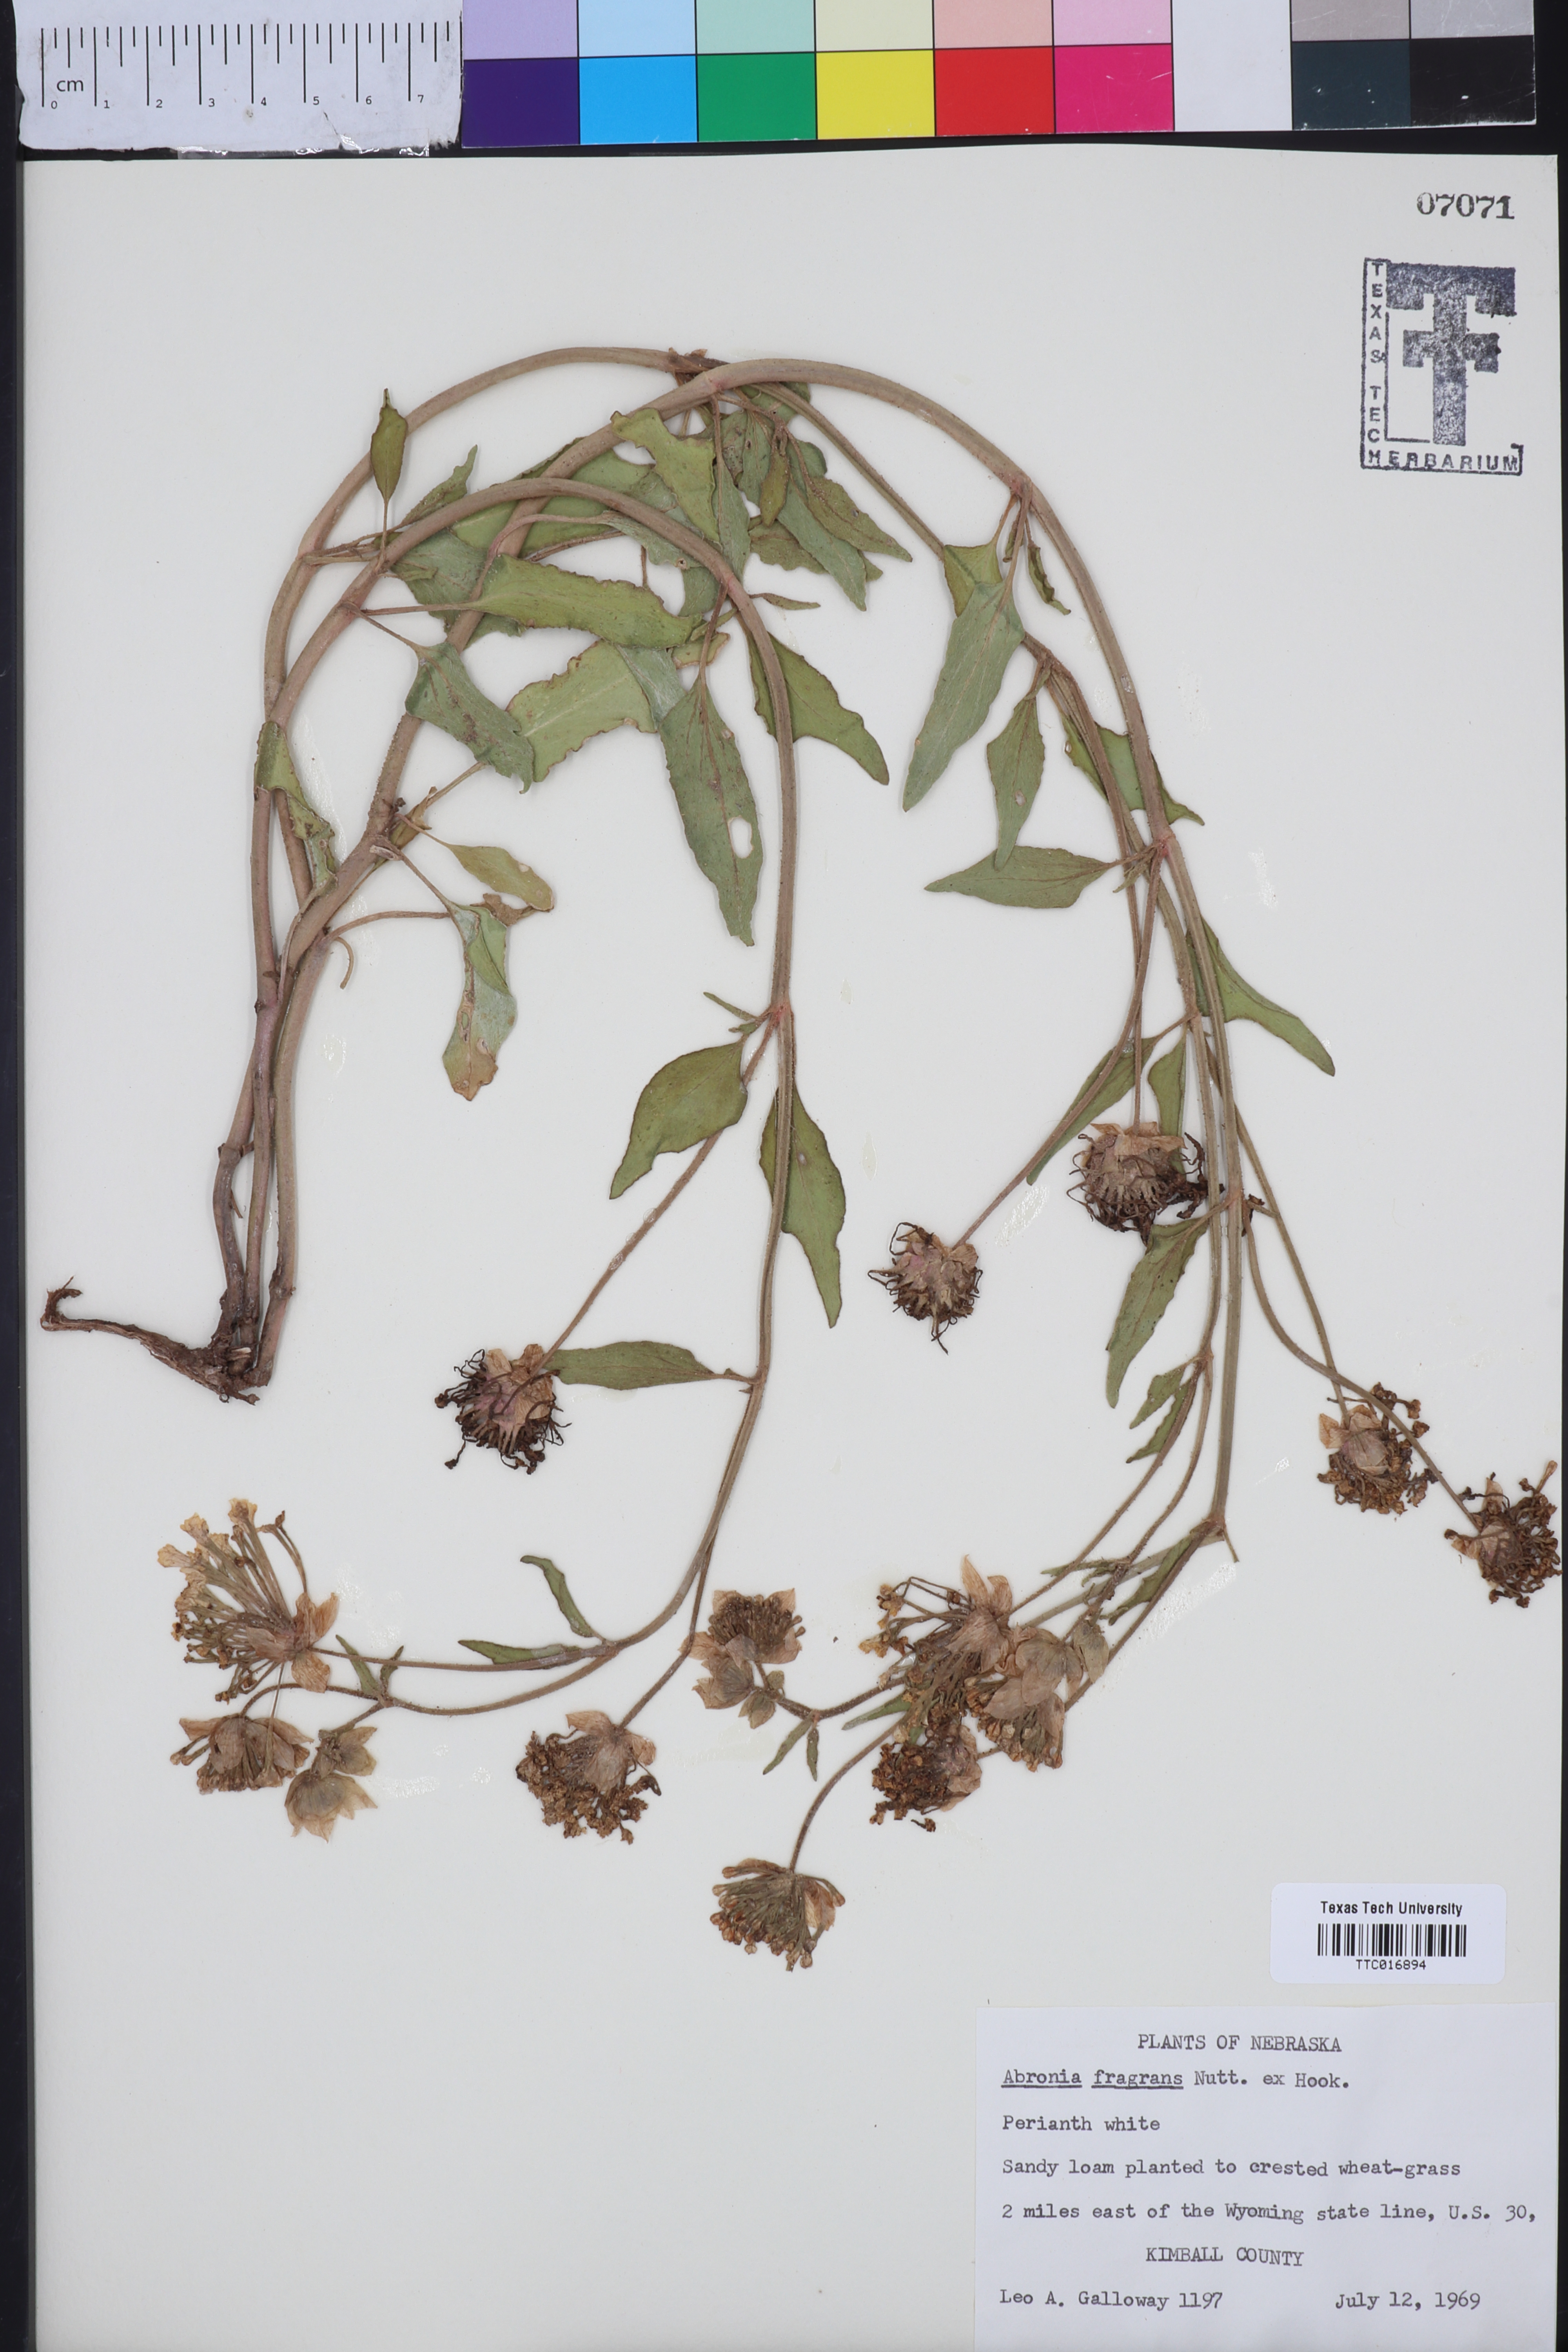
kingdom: Plantae
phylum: Tracheophyta
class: Magnoliopsida
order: Caryophyllales
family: Nyctaginaceae
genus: Abronia
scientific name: Abronia fragrans
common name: Fragrant sand-verbena
